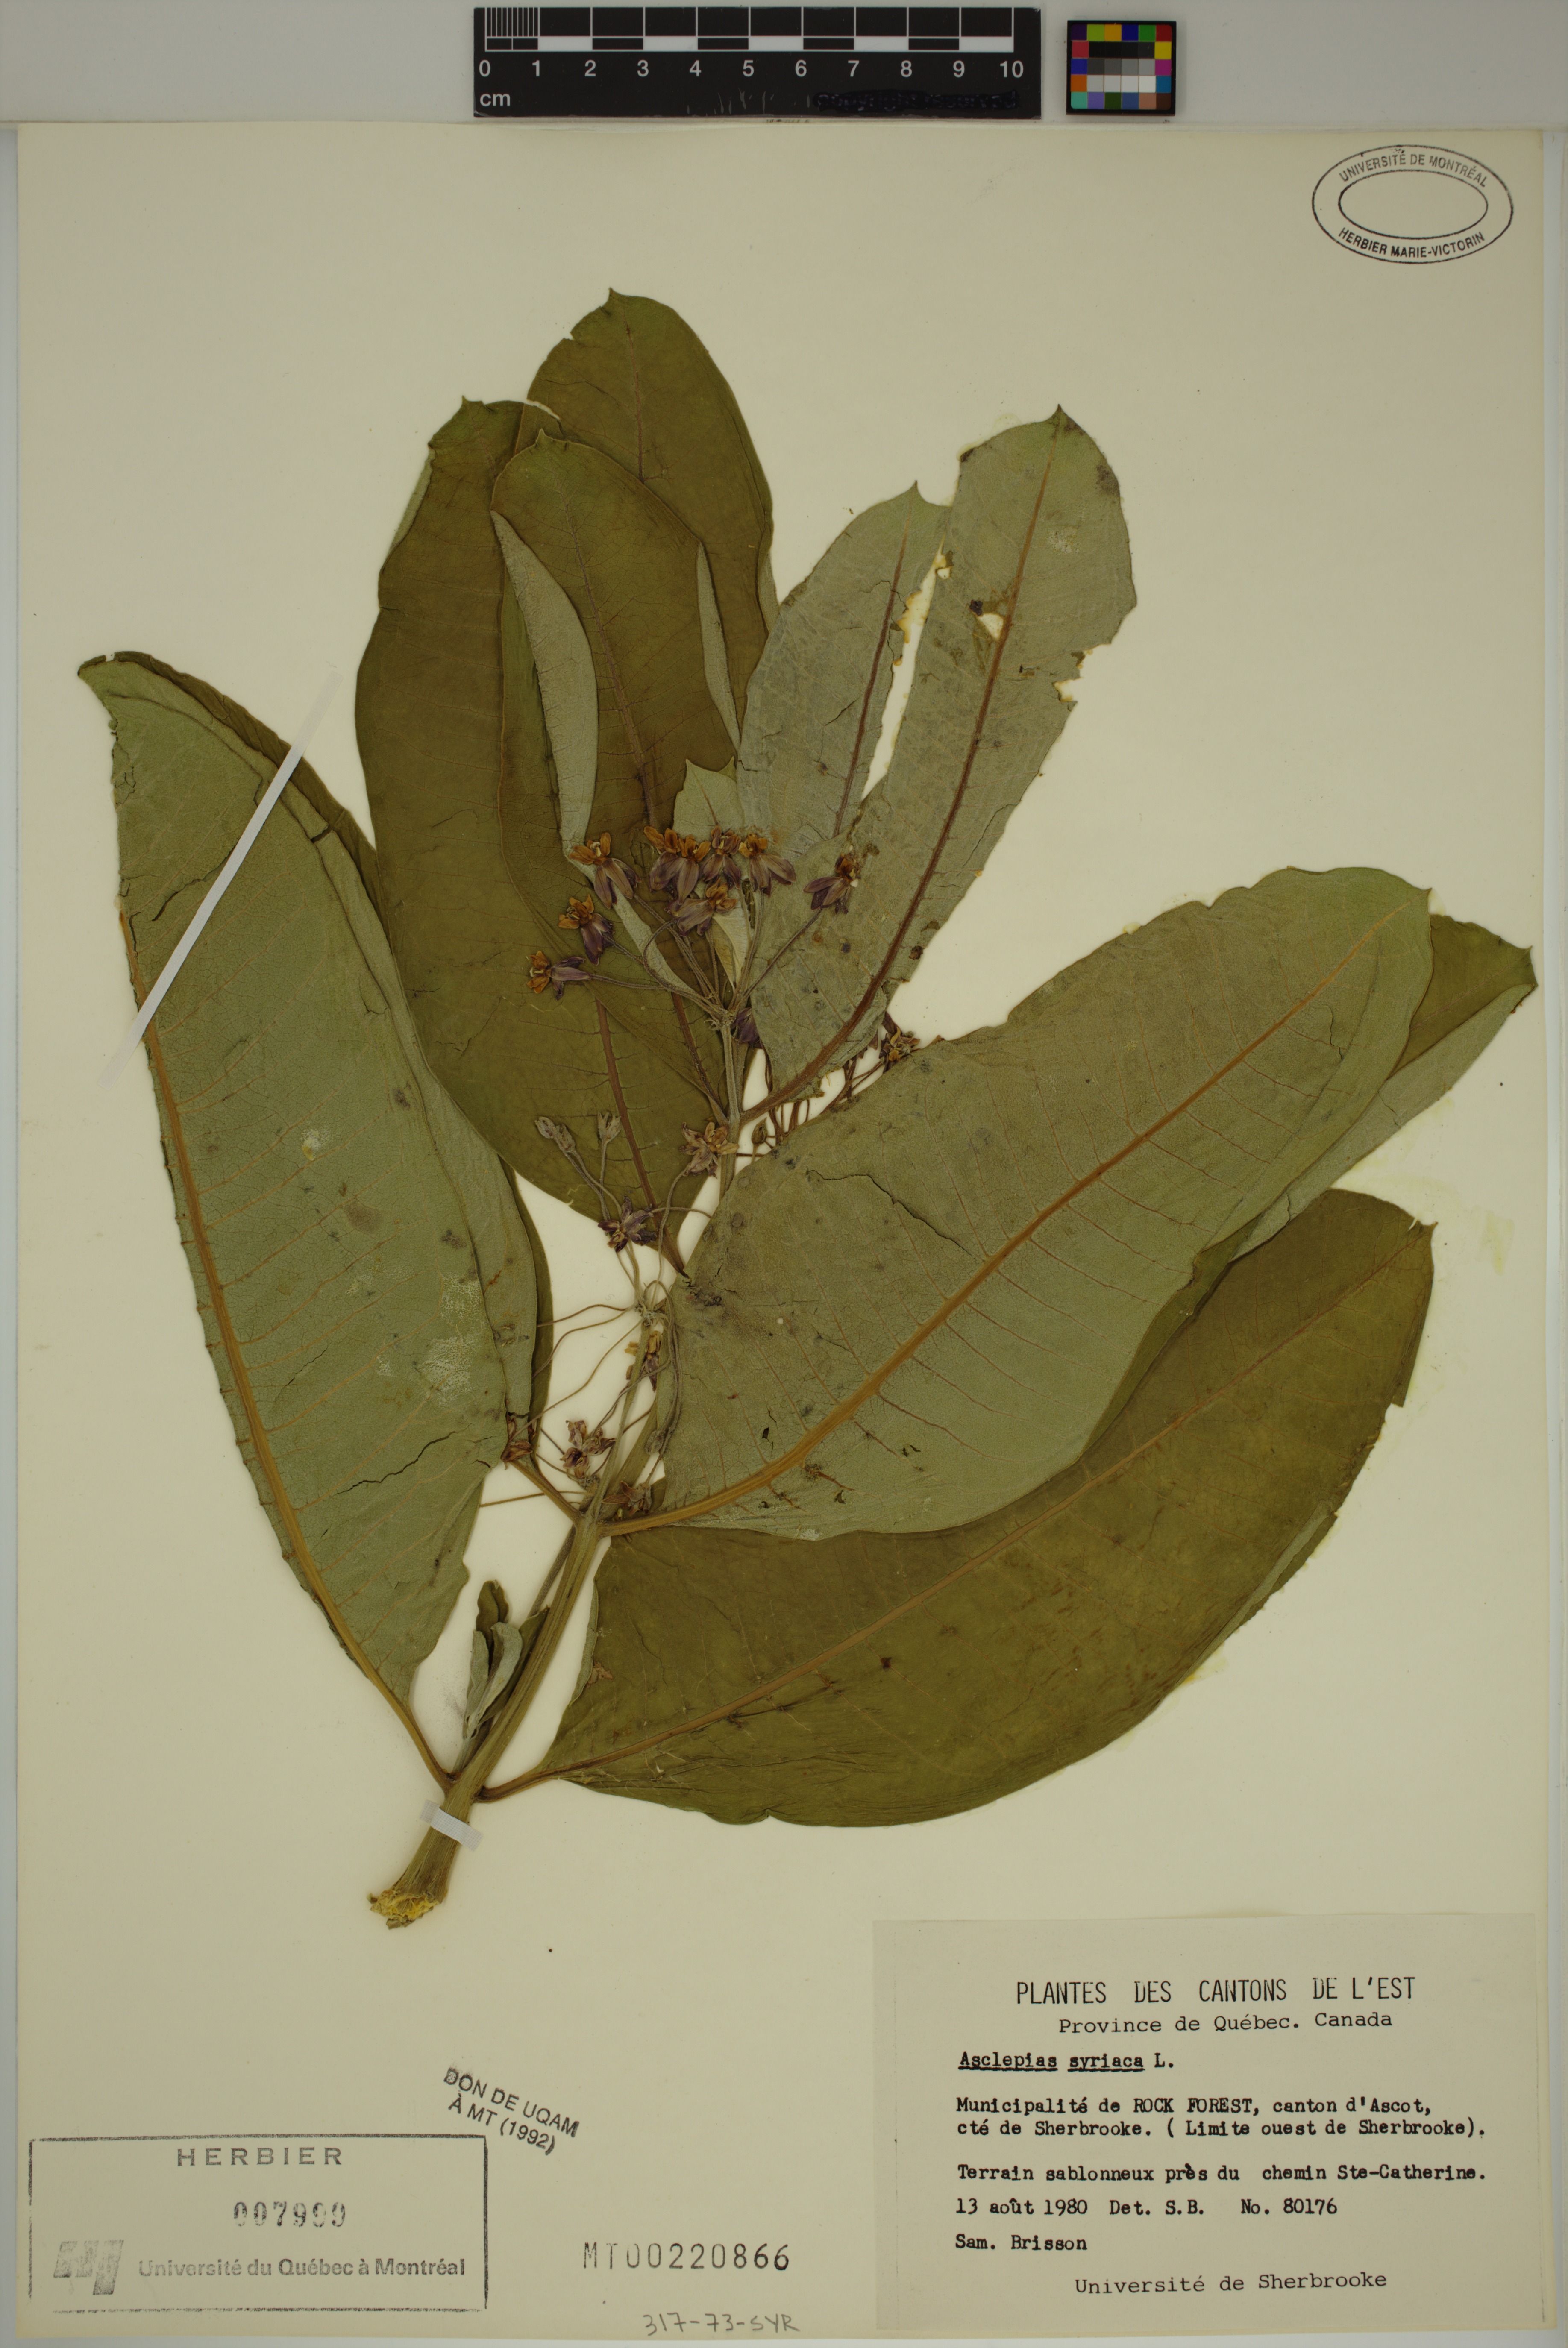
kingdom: Plantae
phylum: Tracheophyta
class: Magnoliopsida
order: Gentianales
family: Apocynaceae
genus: Asclepias
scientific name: Asclepias syriaca
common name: Common milkweed
